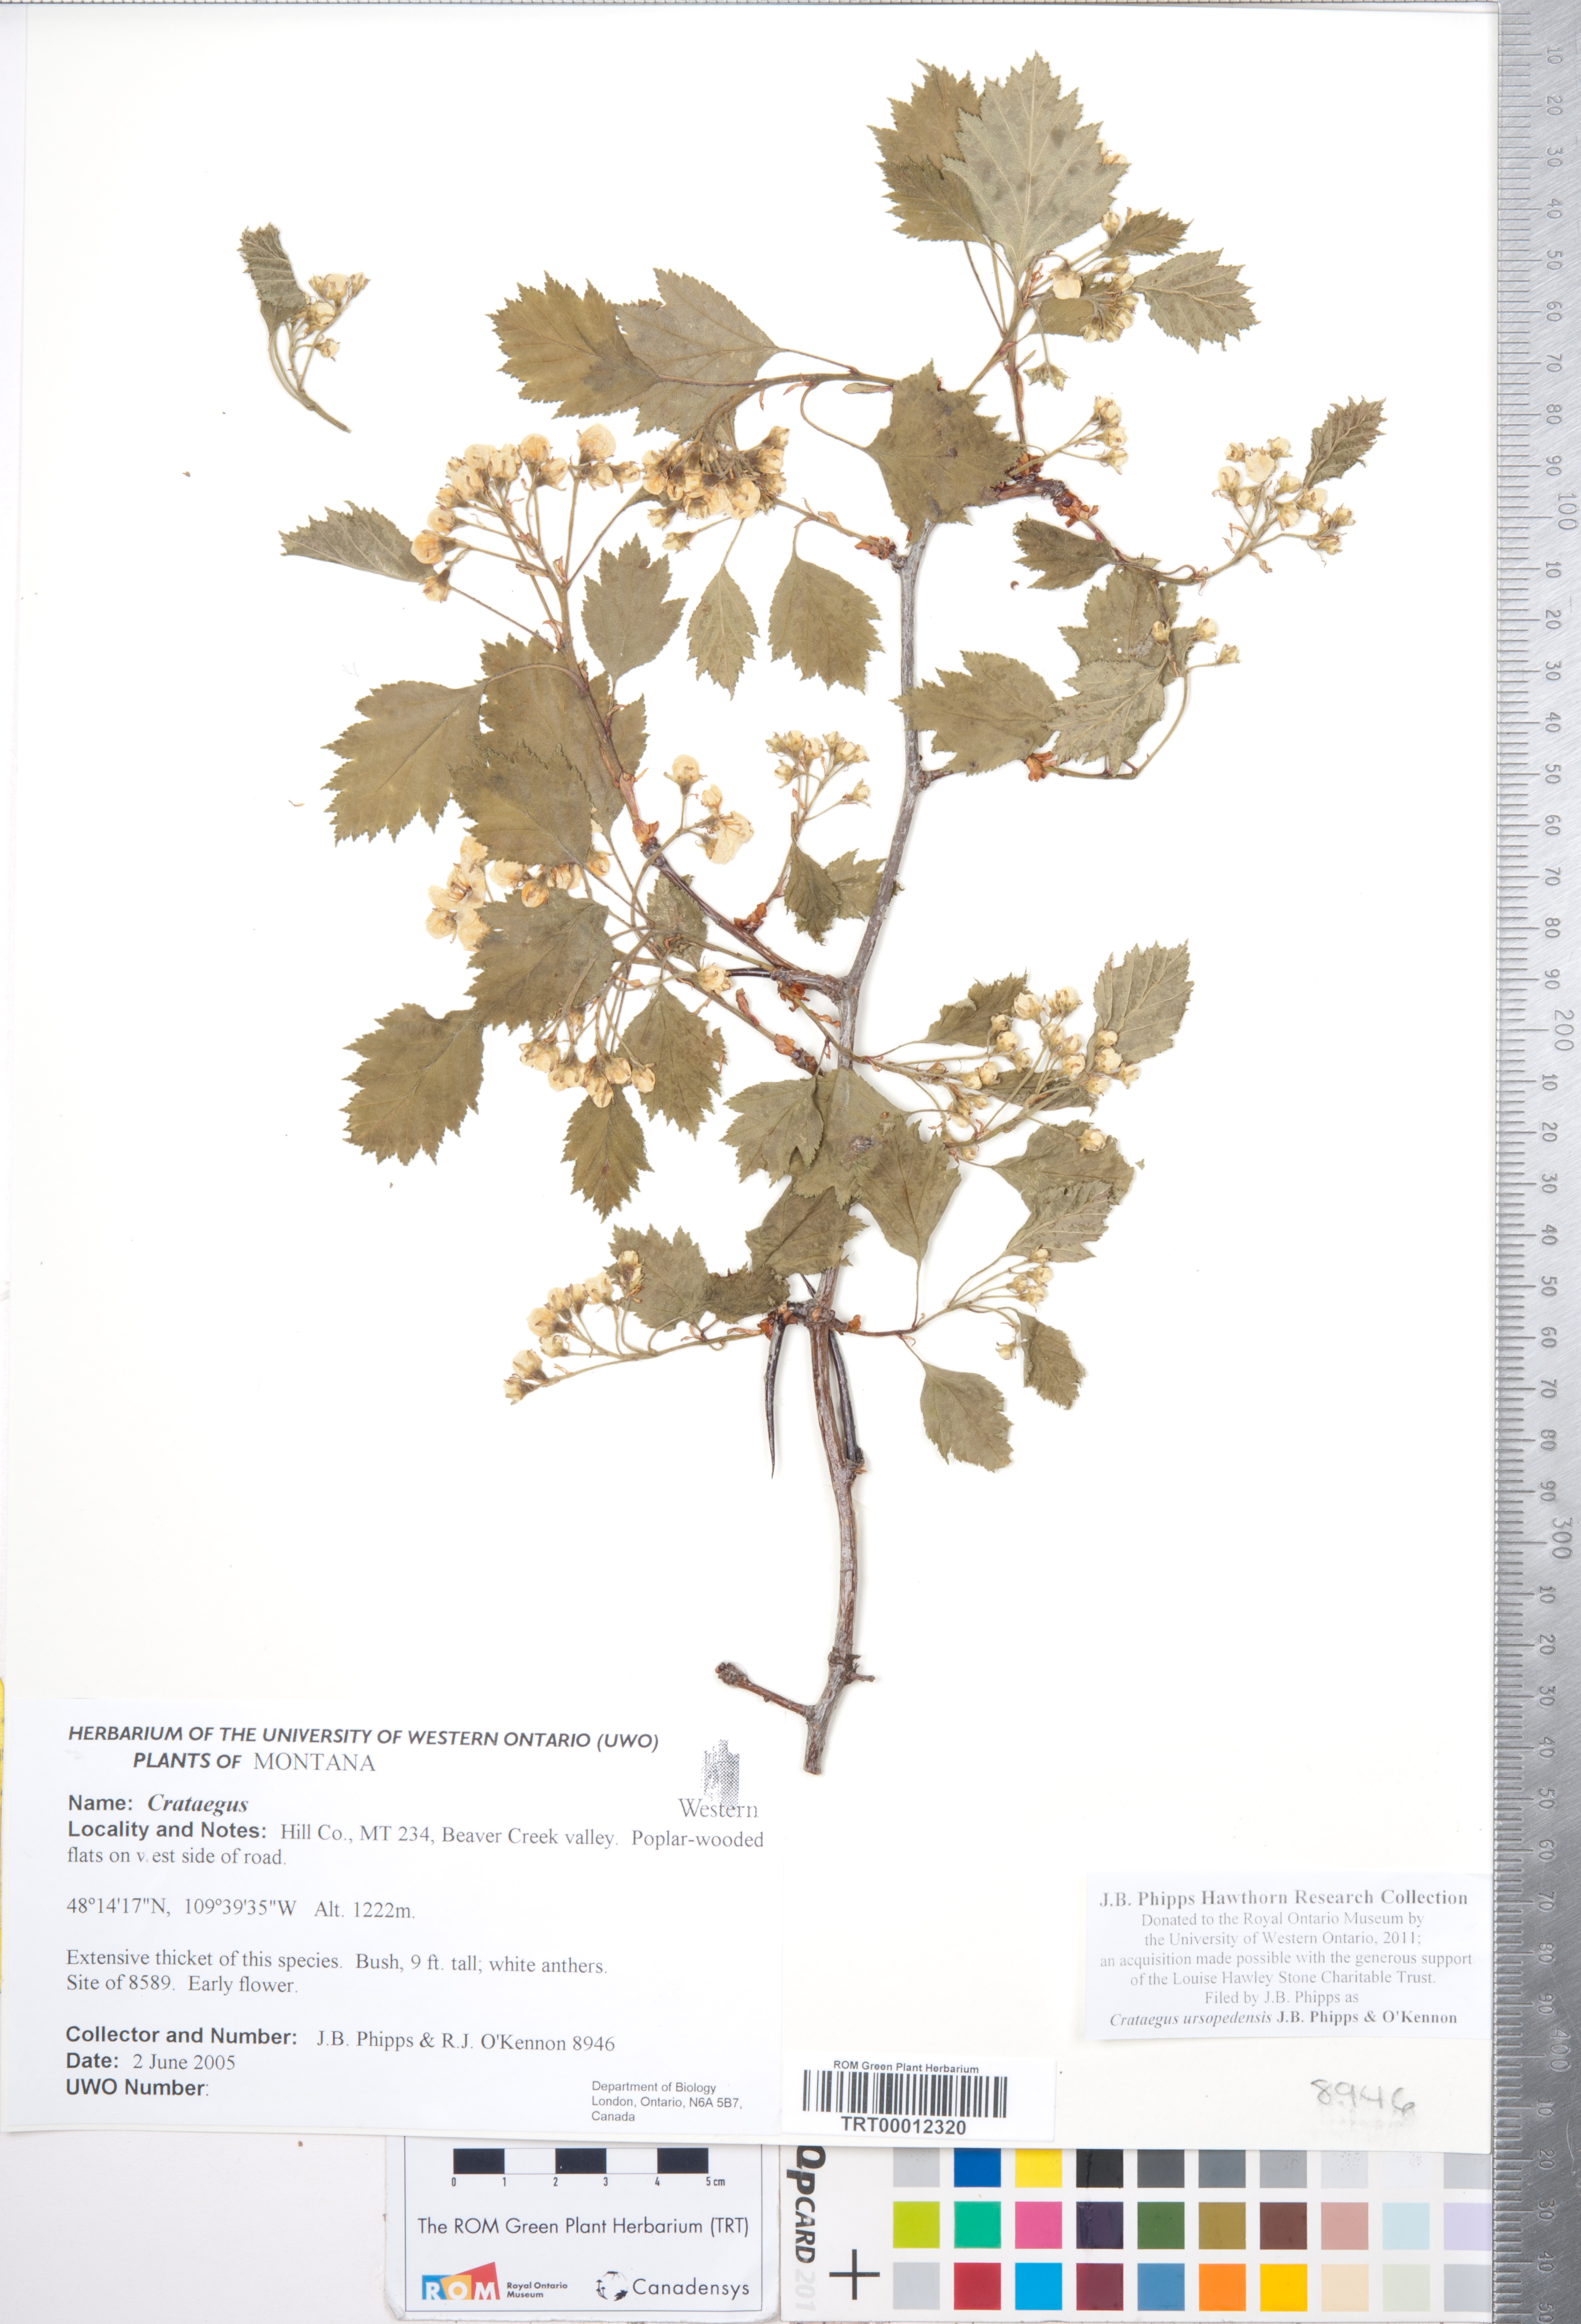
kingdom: Plantae
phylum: Tracheophyta
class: Magnoliopsida
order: Rosales
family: Rosaceae
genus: Crataegus
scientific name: Crataegus ursopedensis
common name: Bears paw hawthorn
